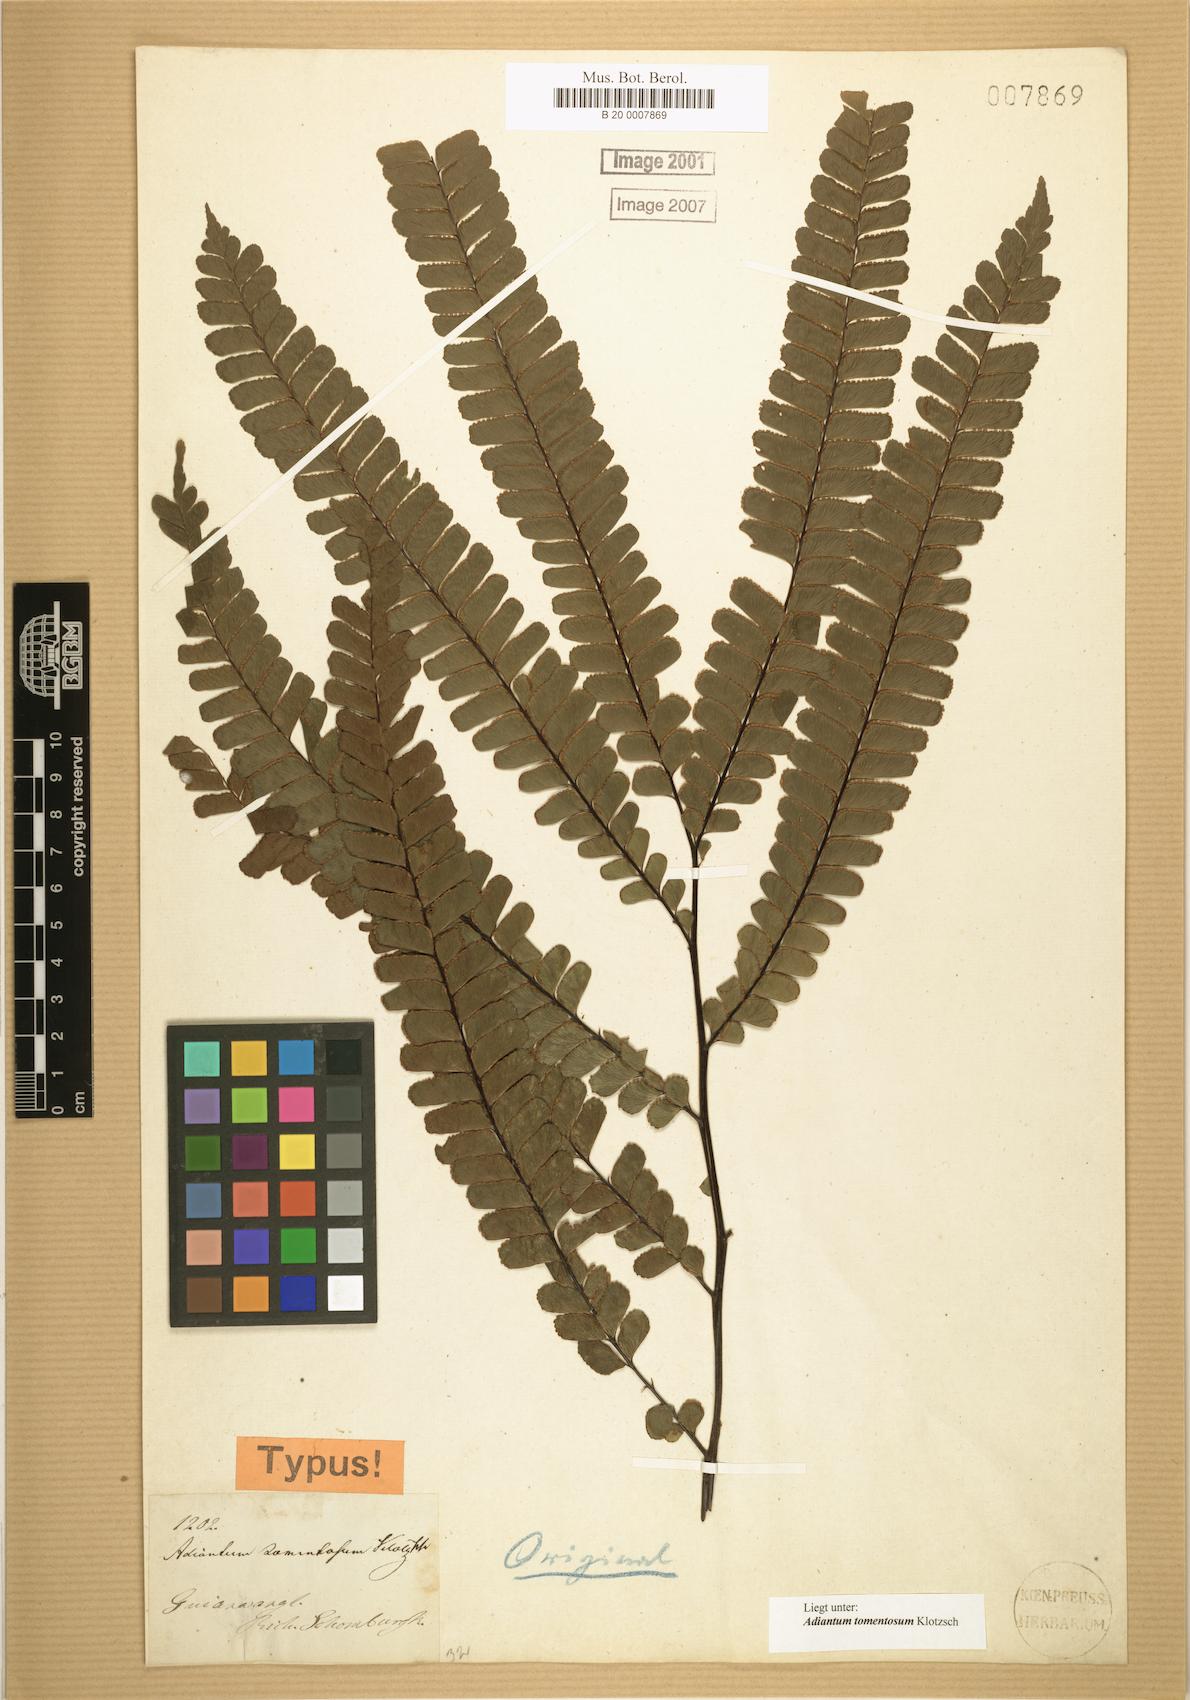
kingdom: Plantae
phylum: Tracheophyta
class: Polypodiopsida
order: Polypodiales
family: Pteridaceae
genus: Adiantum
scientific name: Adiantum tomentosum
